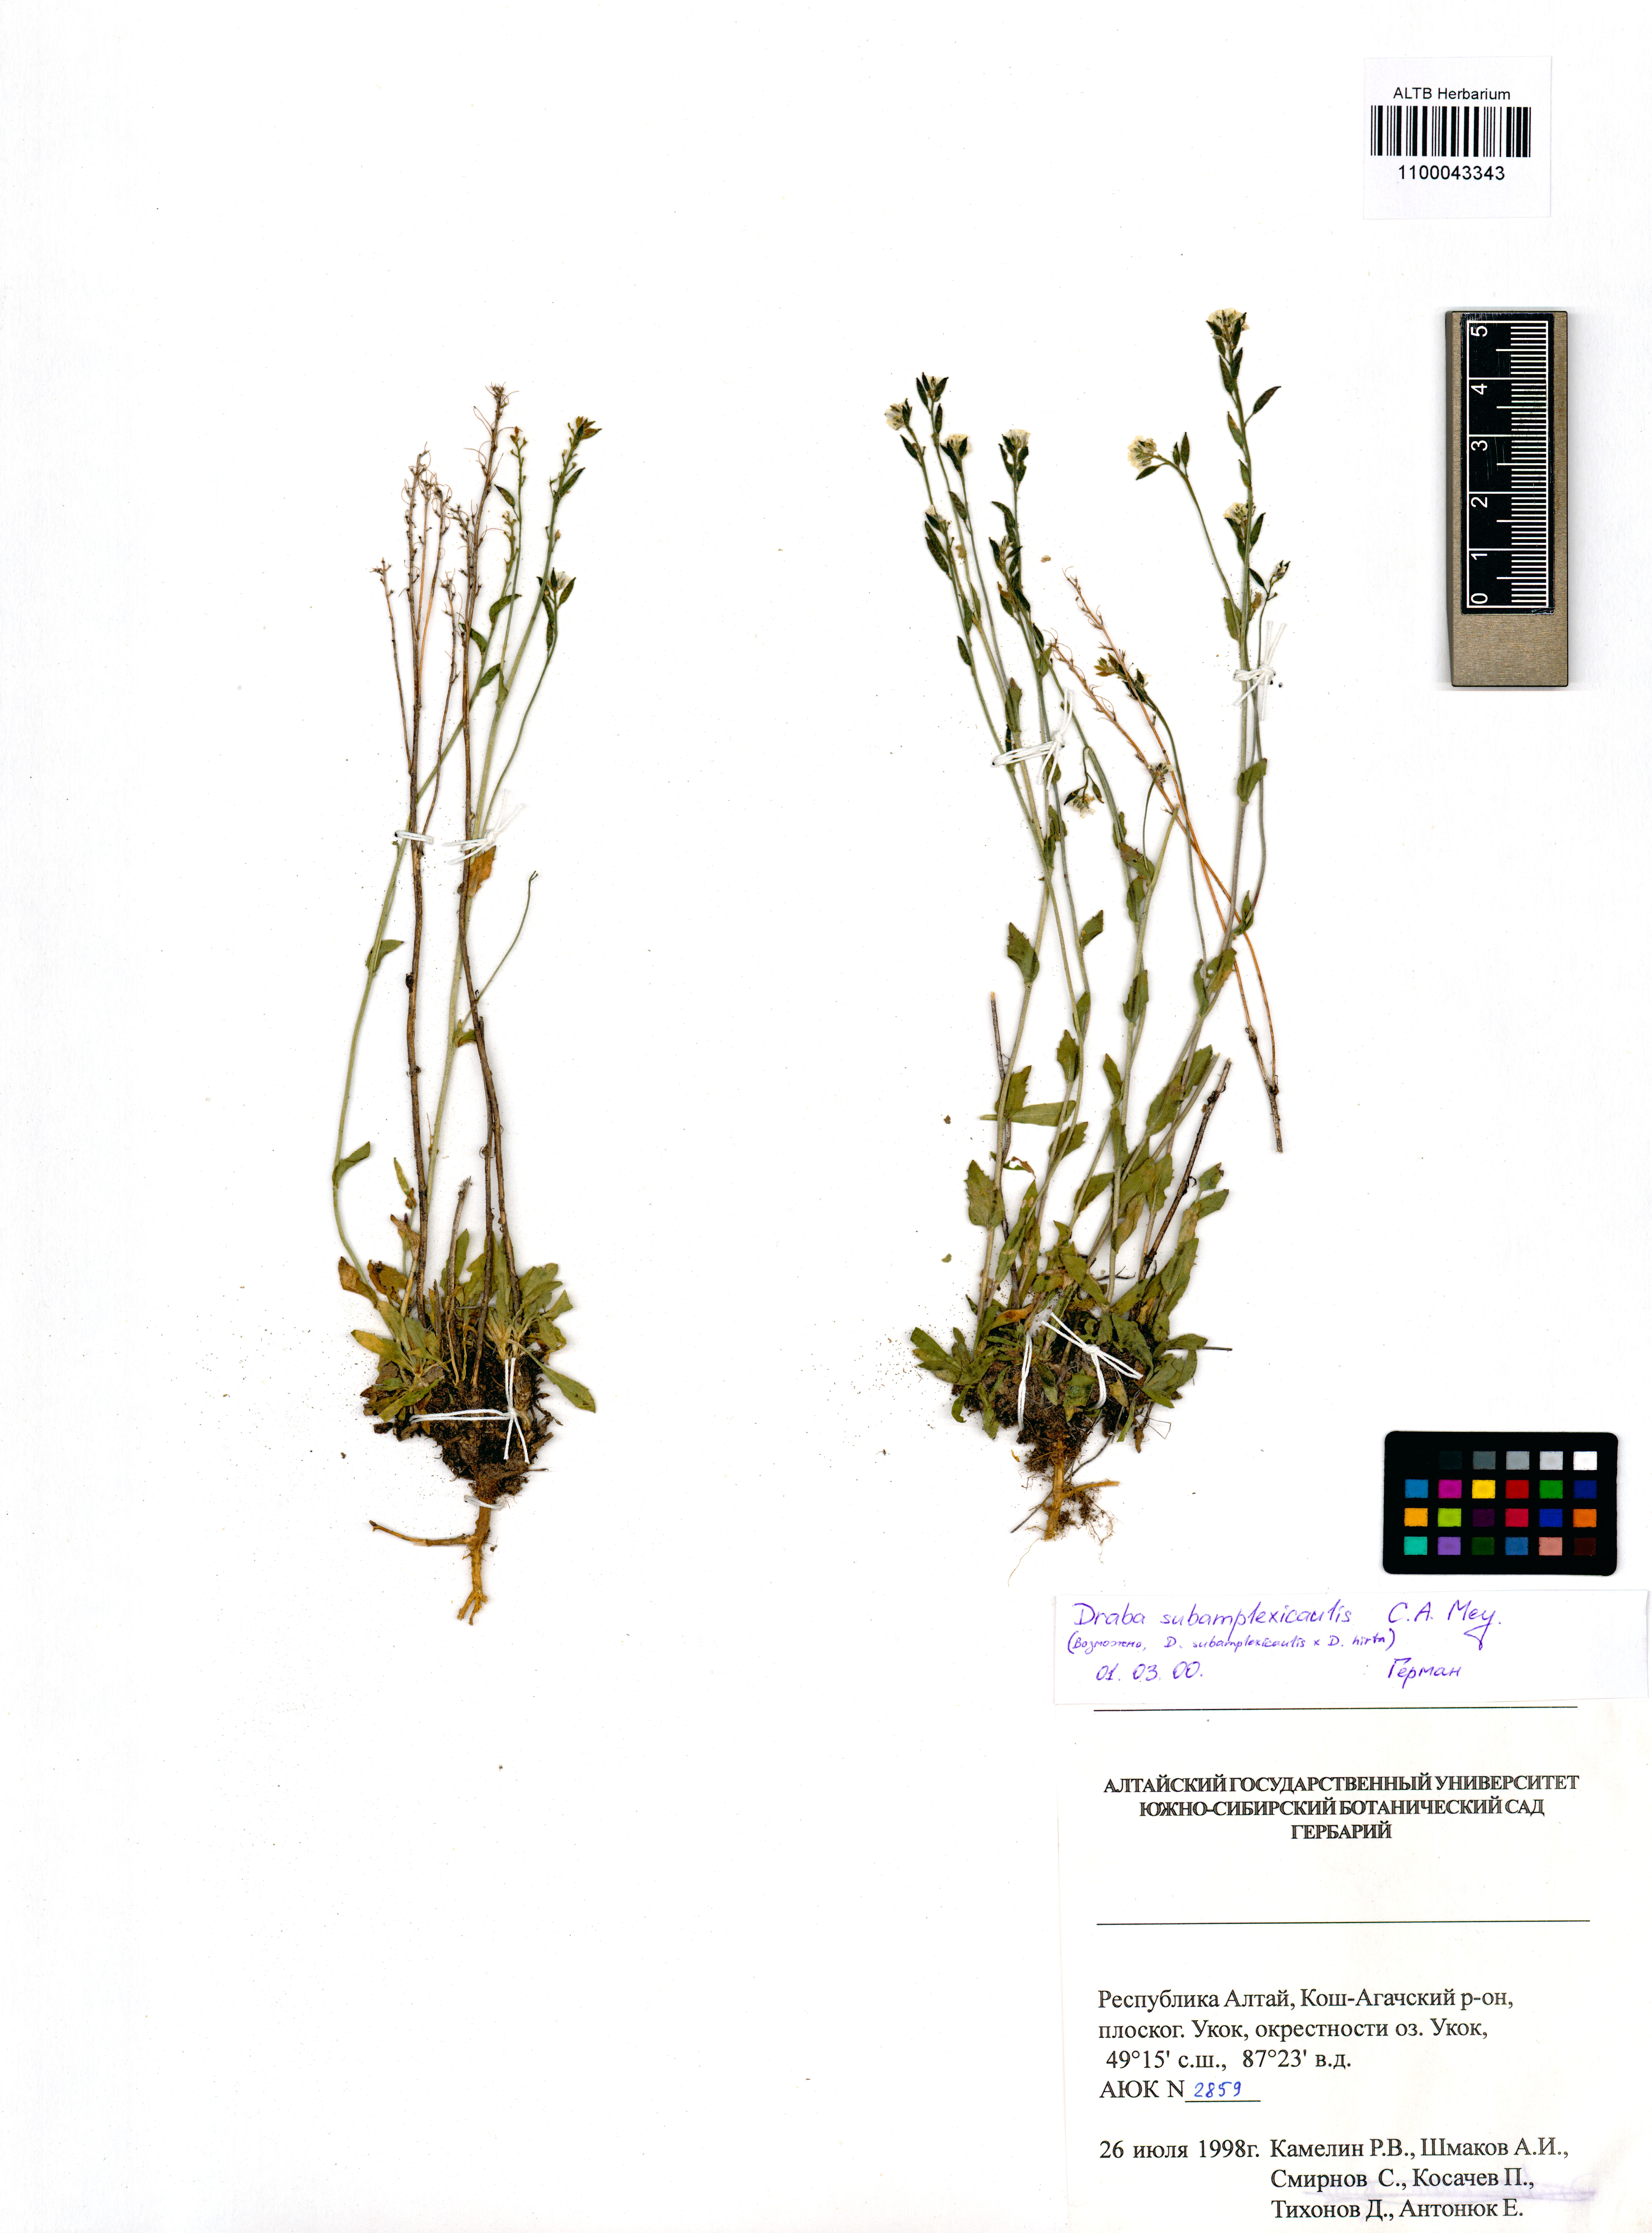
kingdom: Plantae
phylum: Tracheophyta
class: Magnoliopsida
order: Brassicales
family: Brassicaceae
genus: Draba
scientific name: Draba subamplexicaulis
